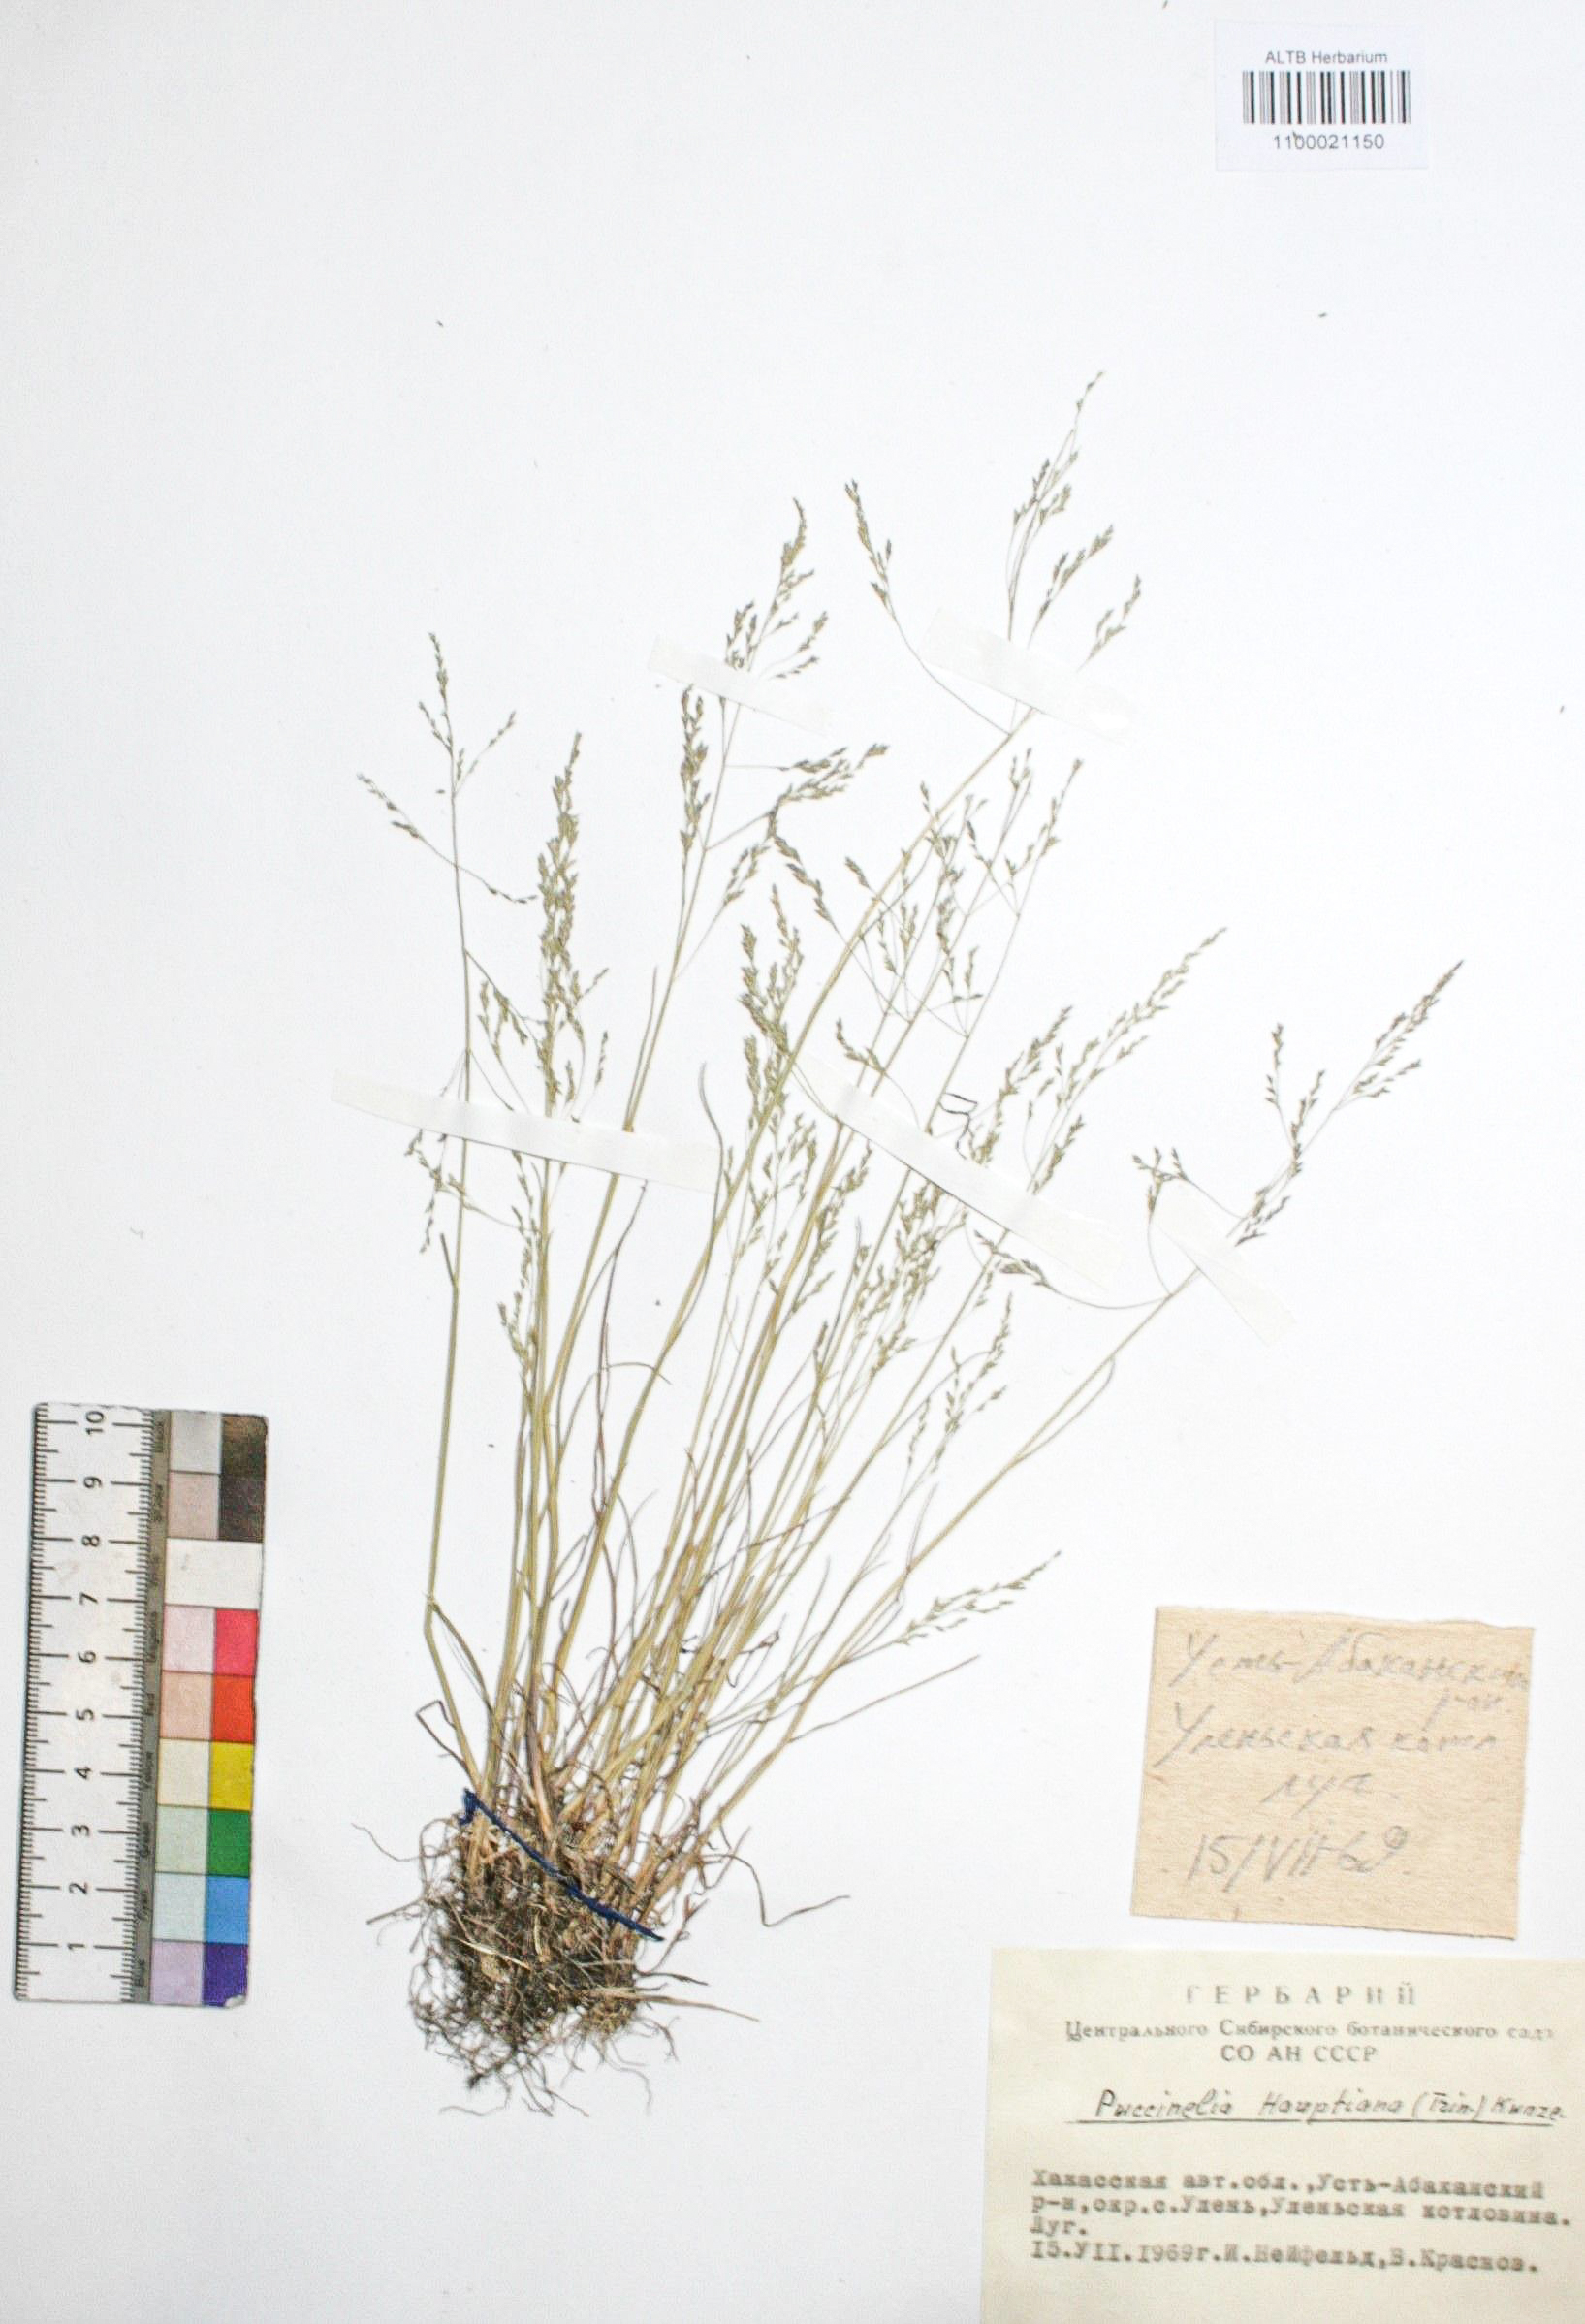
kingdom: Plantae
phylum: Tracheophyta
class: Liliopsida
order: Poales
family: Poaceae
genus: Puccinellia
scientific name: Puccinellia hauptiana
